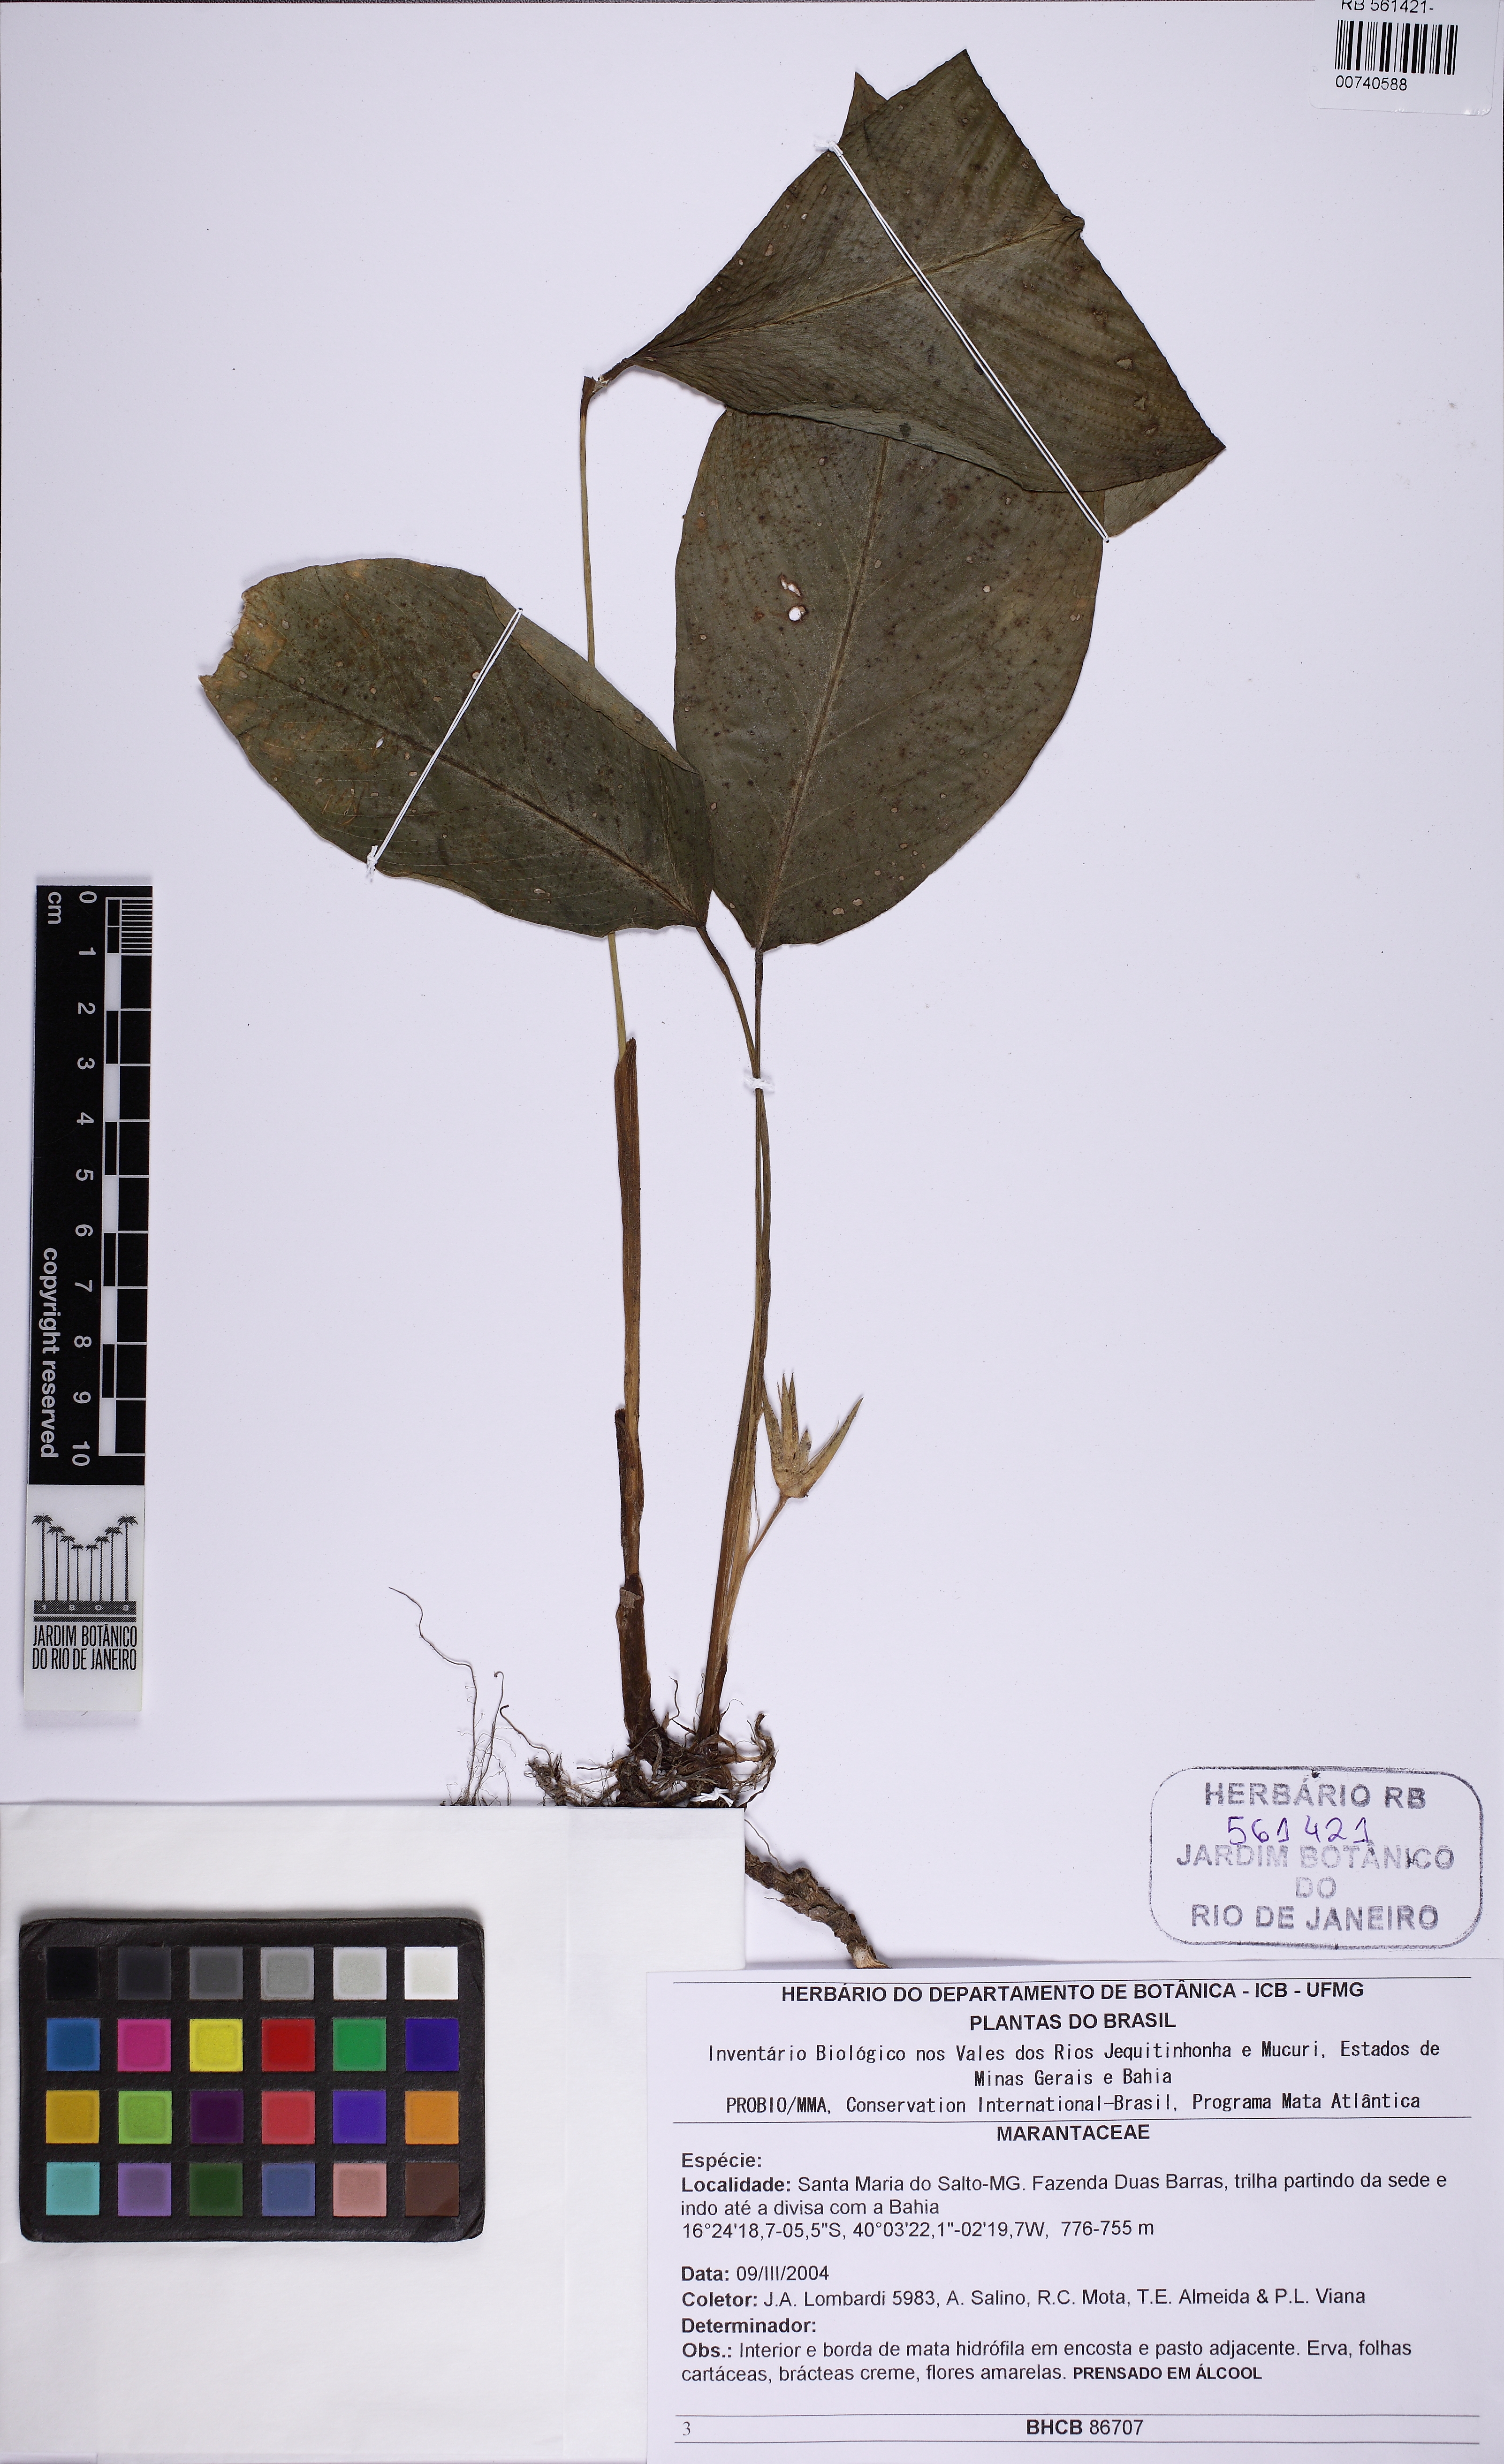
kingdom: Plantae
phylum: Tracheophyta
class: Liliopsida
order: Zingiberales
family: Marantaceae
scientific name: Marantaceae
